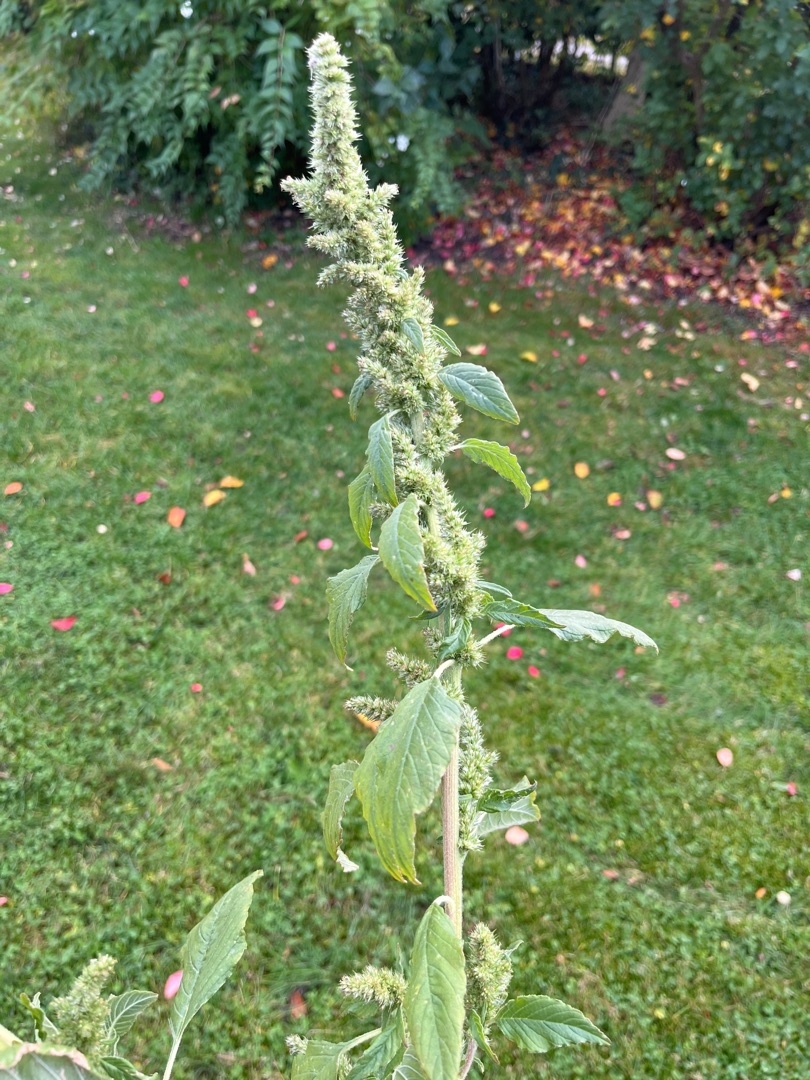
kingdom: Plantae
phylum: Tracheophyta
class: Magnoliopsida
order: Caryophyllales
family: Amaranthaceae
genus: Amaranthus
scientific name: Amaranthus retroflexus
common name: Opret amarant
